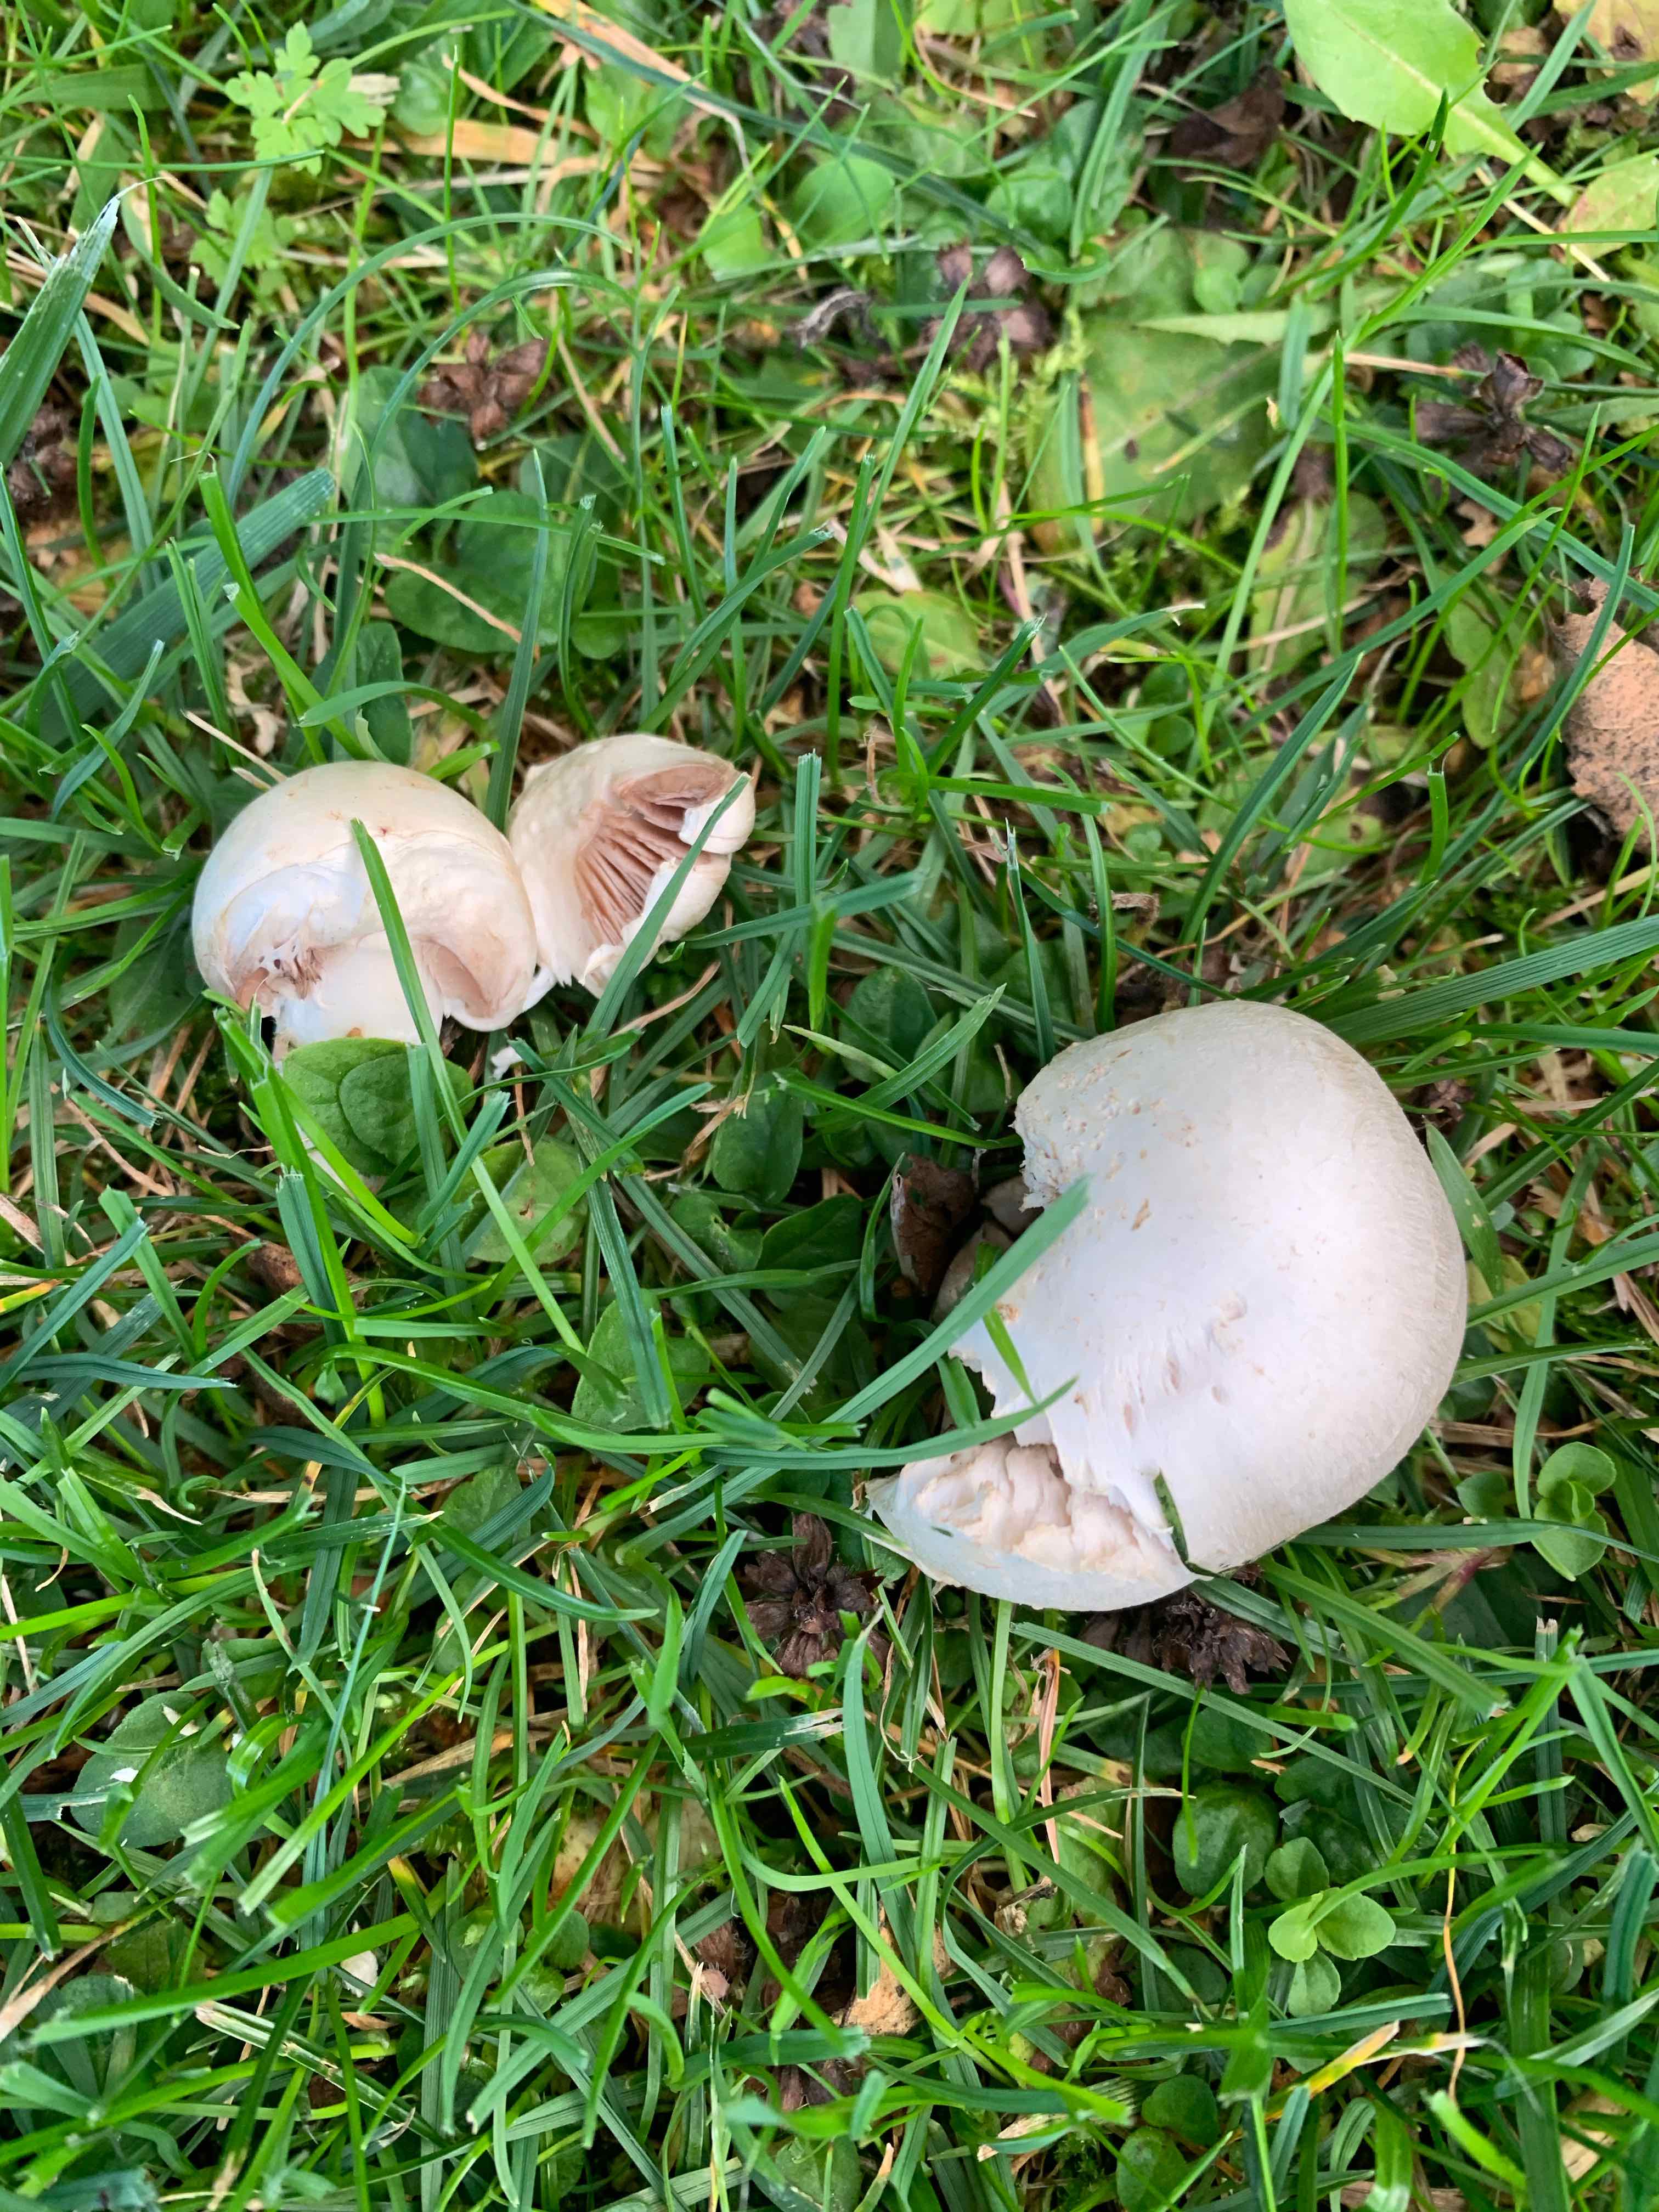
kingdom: Fungi
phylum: Basidiomycota
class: Agaricomycetes
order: Agaricales
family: Agaricaceae
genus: Agaricus
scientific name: Agaricus
